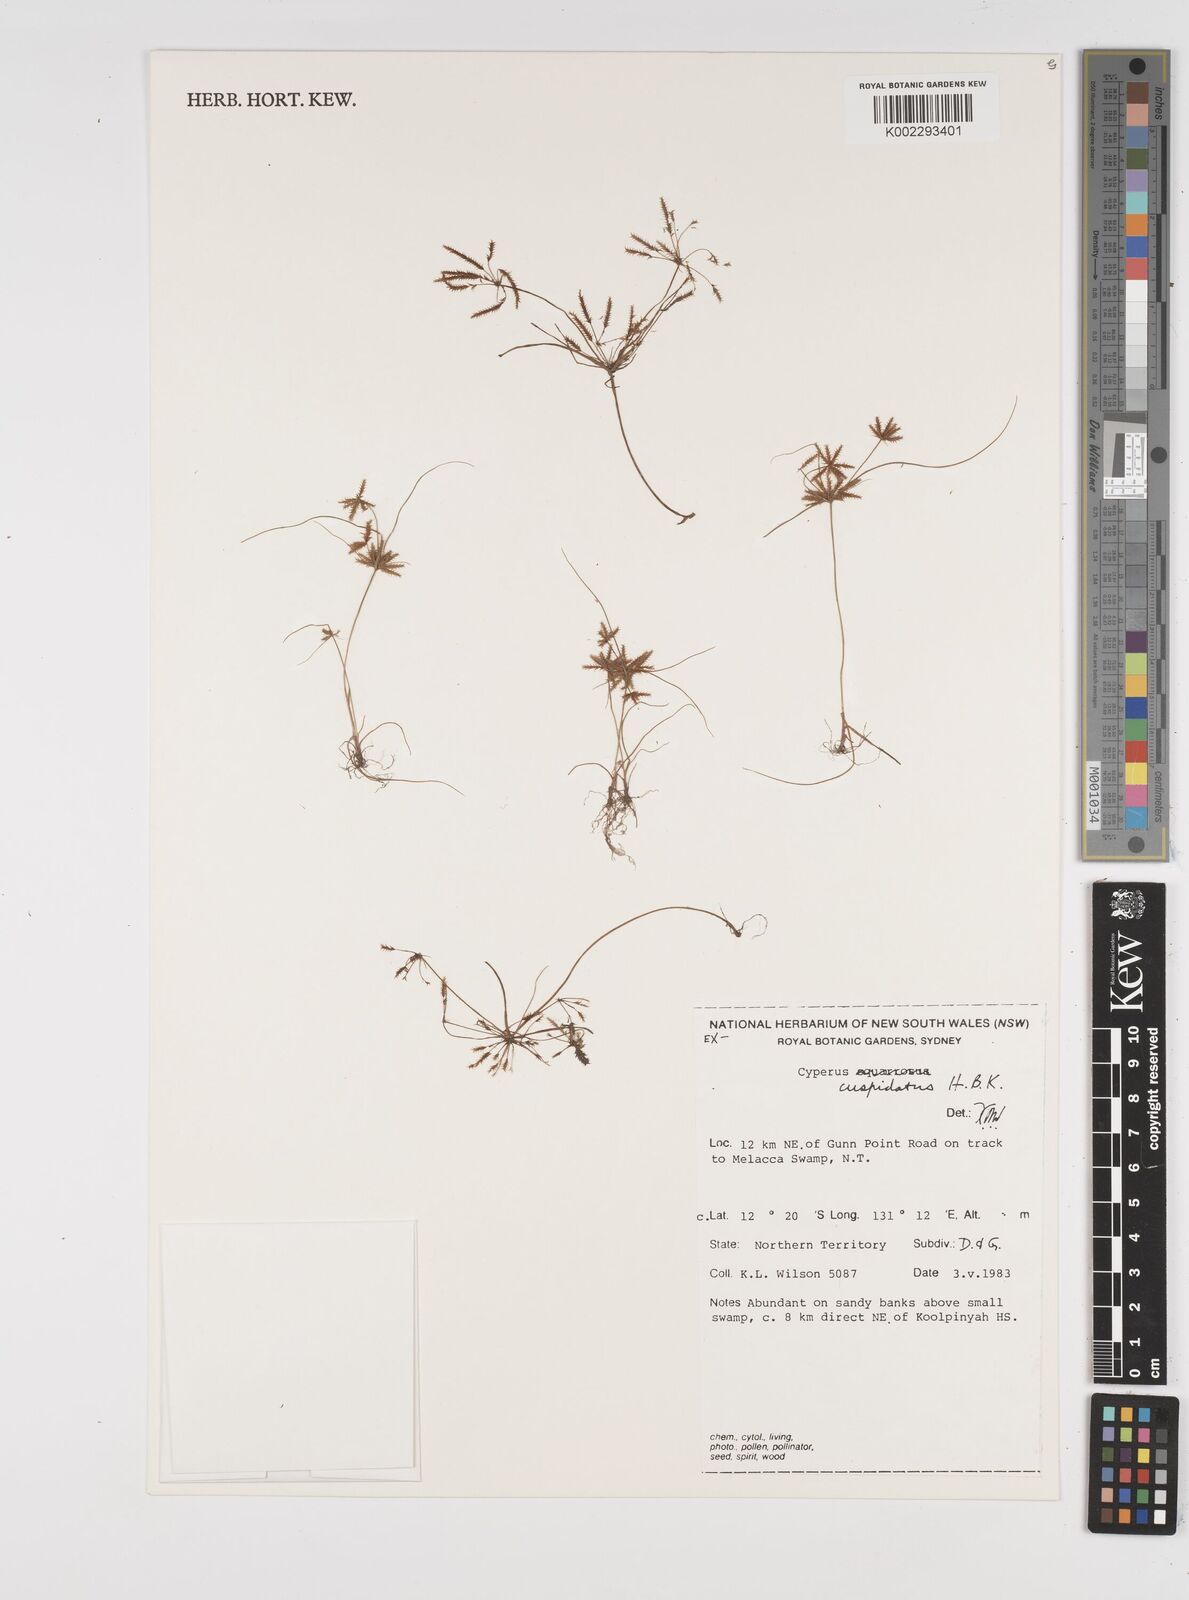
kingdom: Plantae
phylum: Tracheophyta
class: Liliopsida
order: Poales
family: Cyperaceae
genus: Cyperus
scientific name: Cyperus cuspidatus
